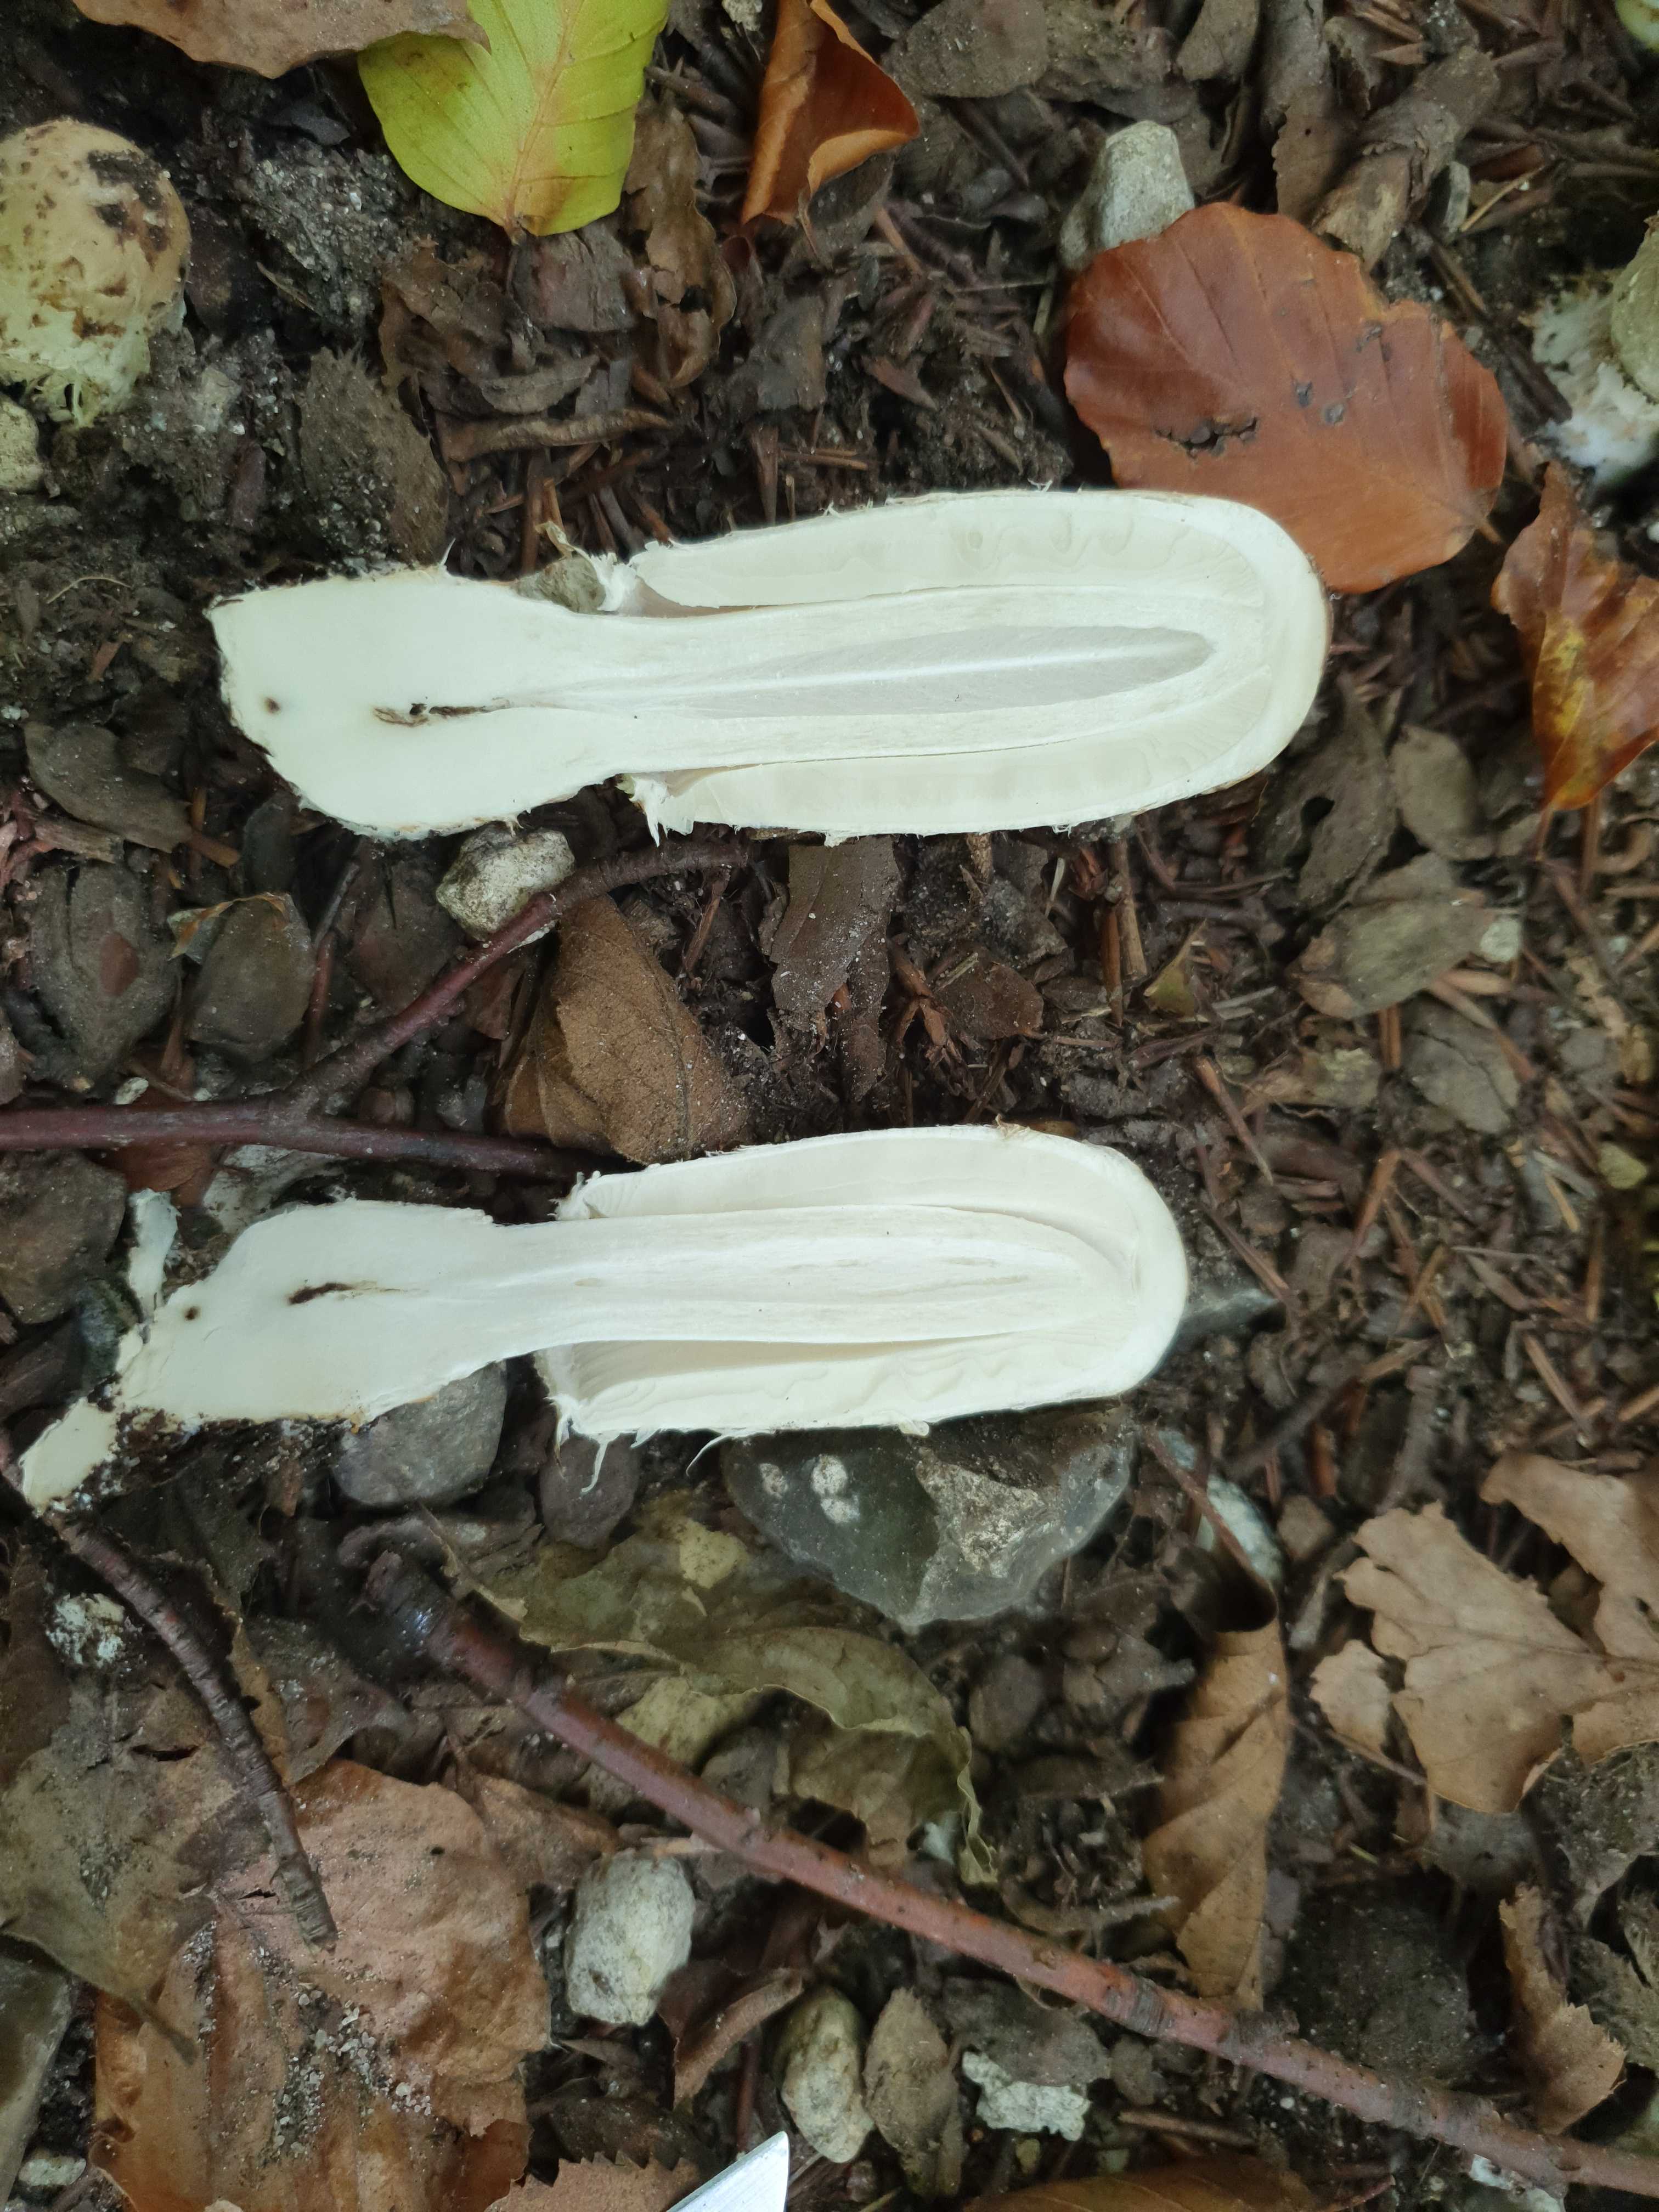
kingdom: Fungi
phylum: Basidiomycota
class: Agaricomycetes
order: Agaricales
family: Agaricaceae
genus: Coprinus
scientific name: Coprinus comatus
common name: stor parykhat
